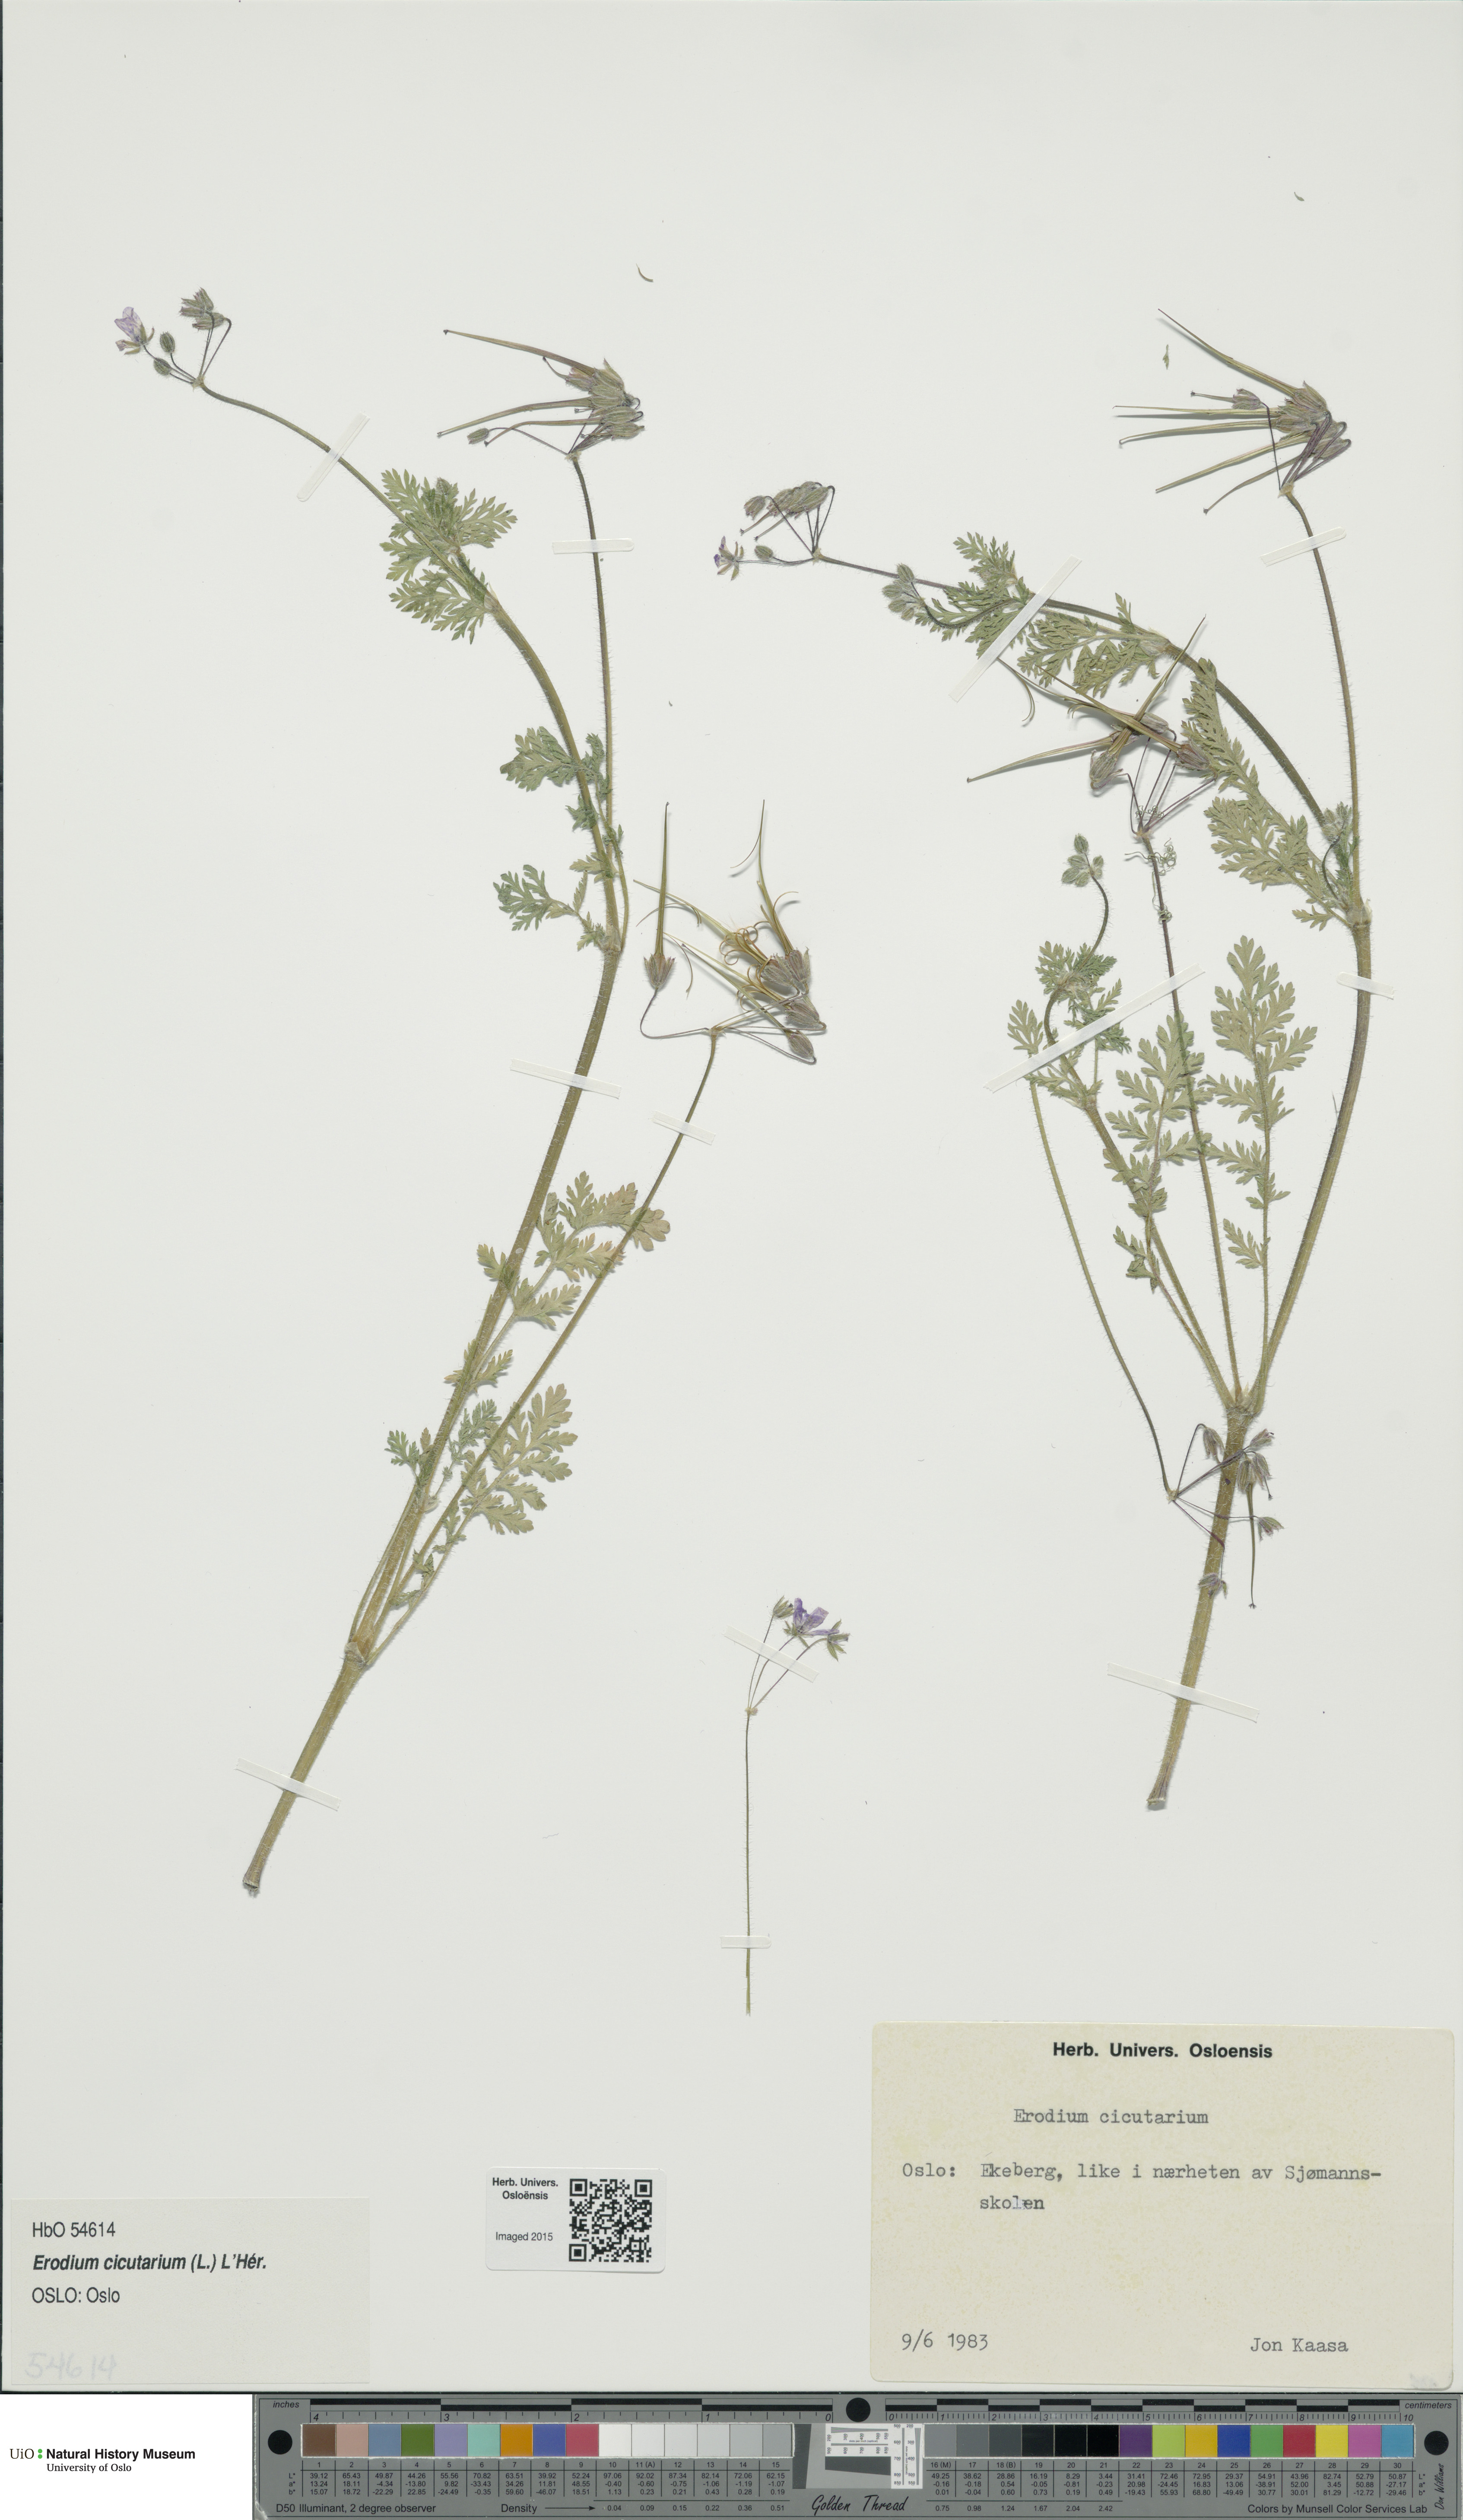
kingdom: Plantae
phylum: Tracheophyta
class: Magnoliopsida
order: Geraniales
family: Geraniaceae
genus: Erodium
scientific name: Erodium cicutarium
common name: Common stork's-bill
